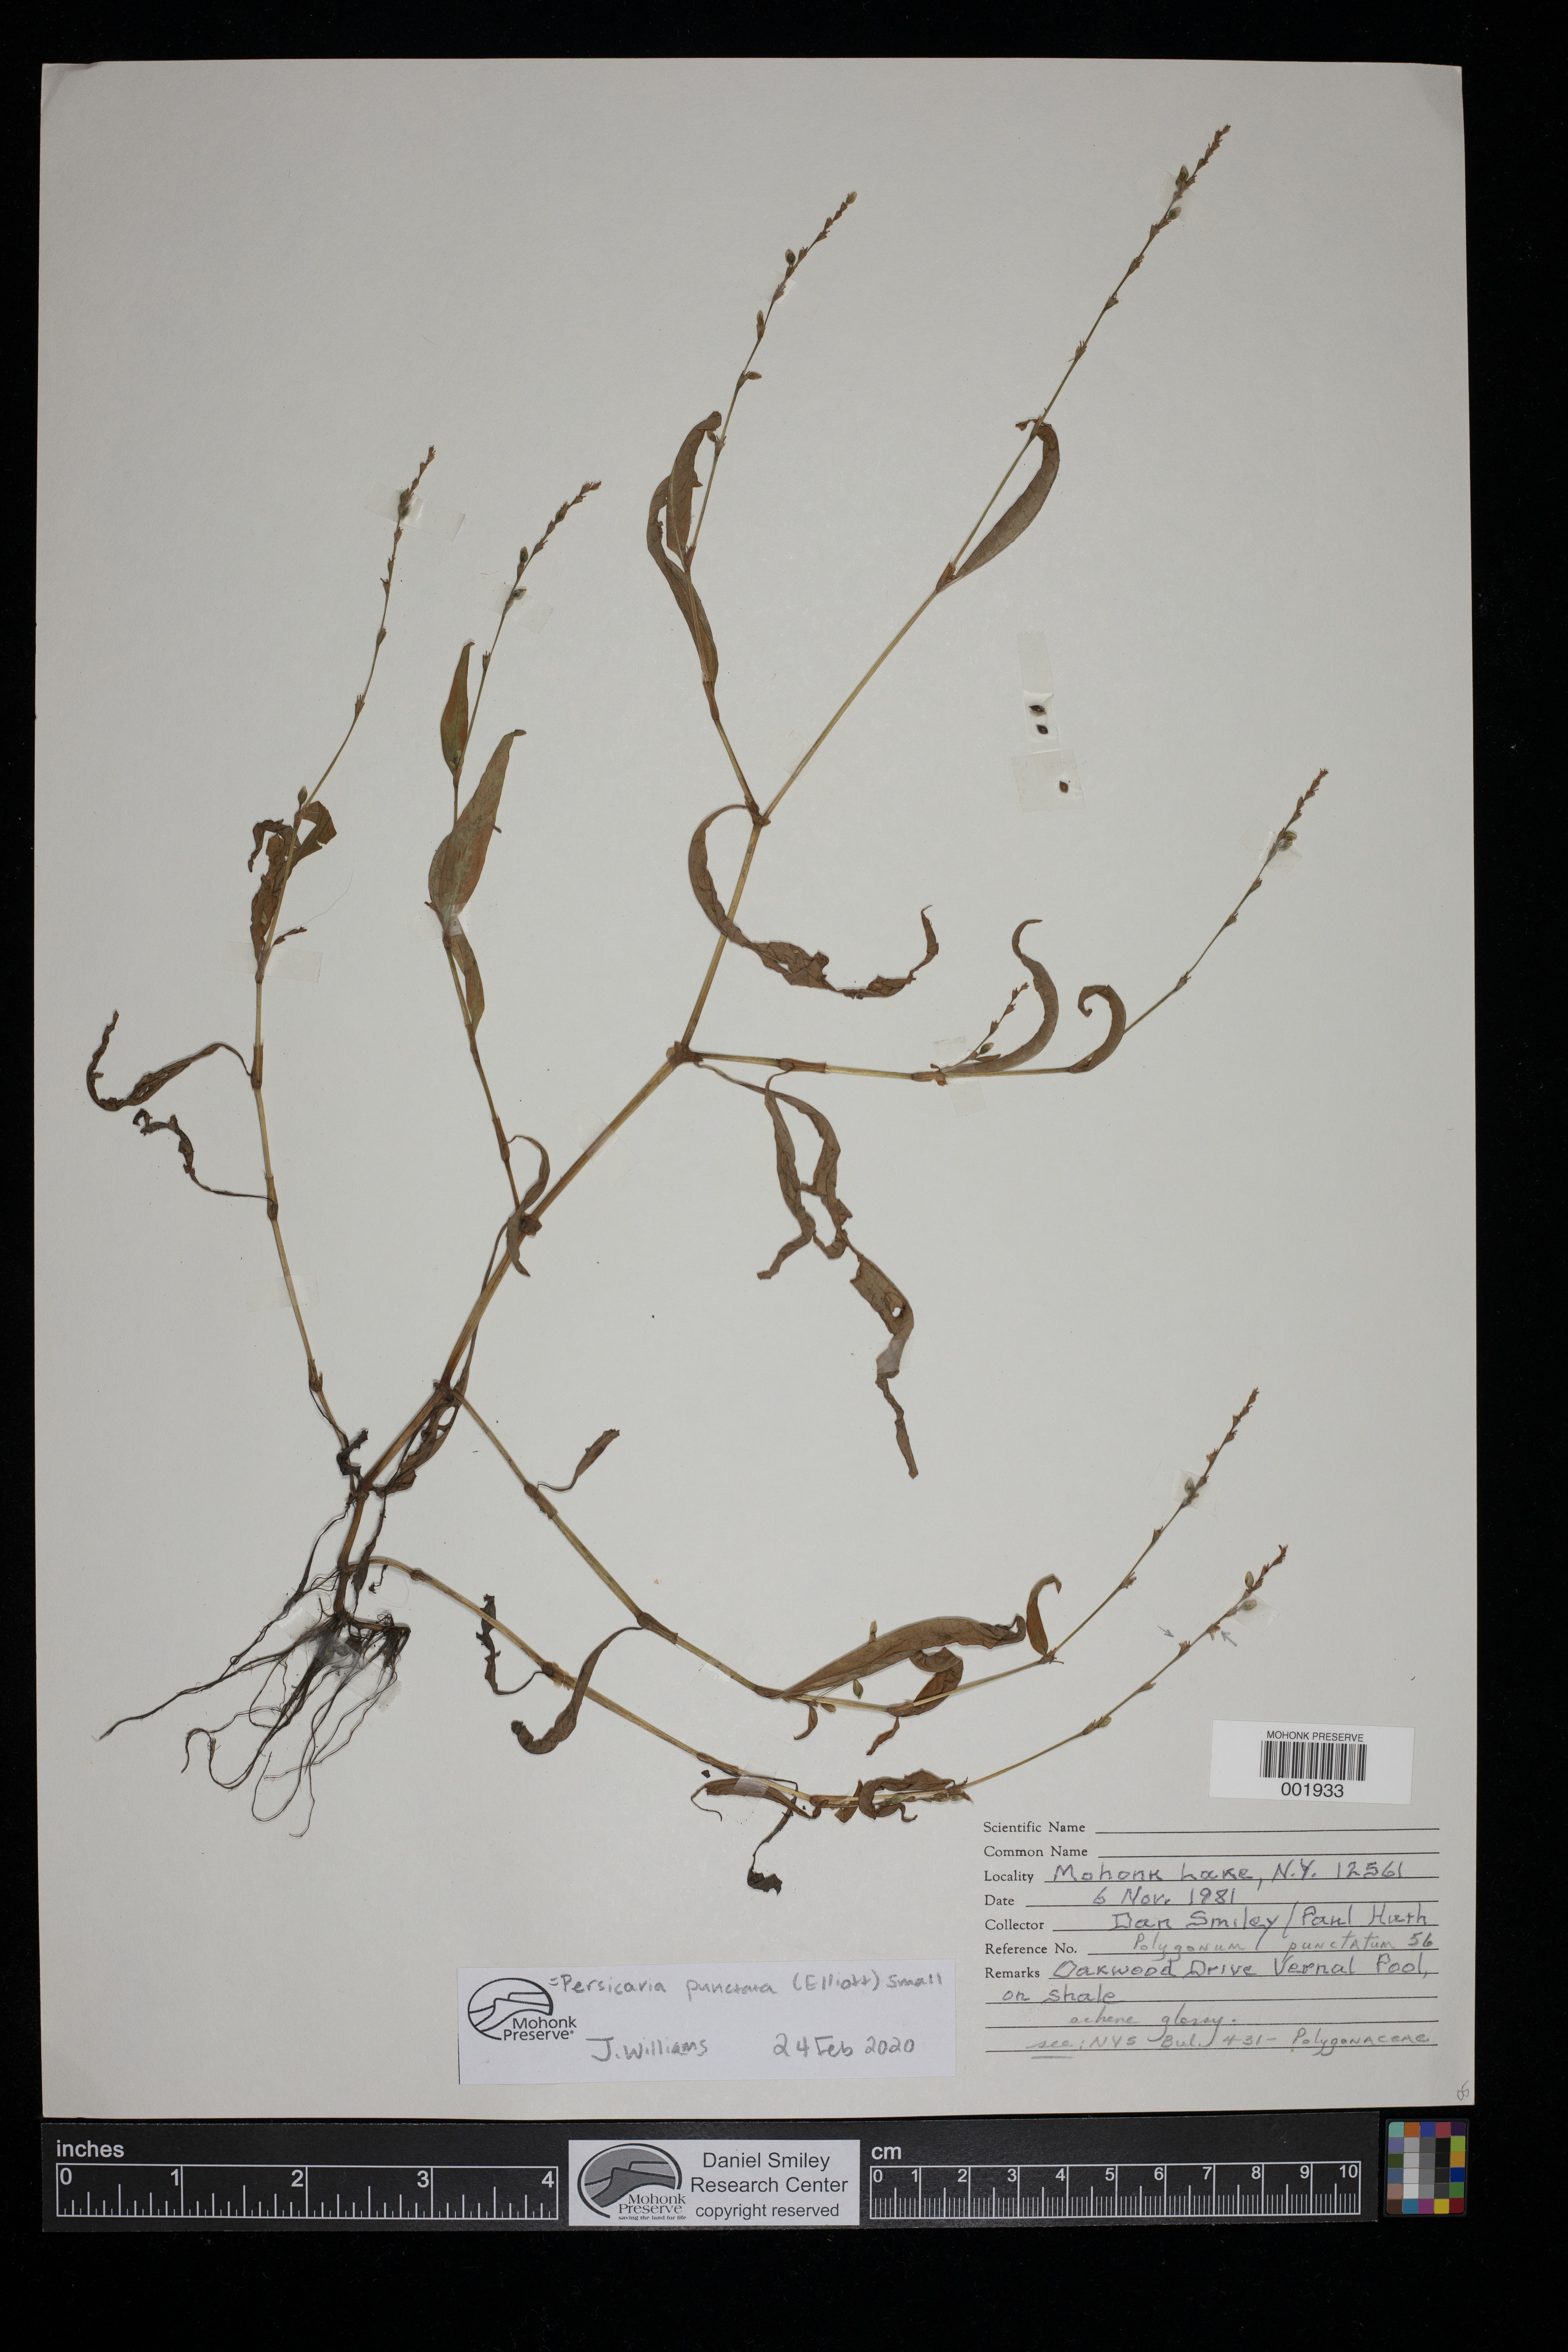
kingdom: Plantae
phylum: Tracheophyta
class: Magnoliopsida
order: Caryophyllales
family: Polygonaceae
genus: Persicaria
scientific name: Persicaria punctata
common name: Dotted smartweed
